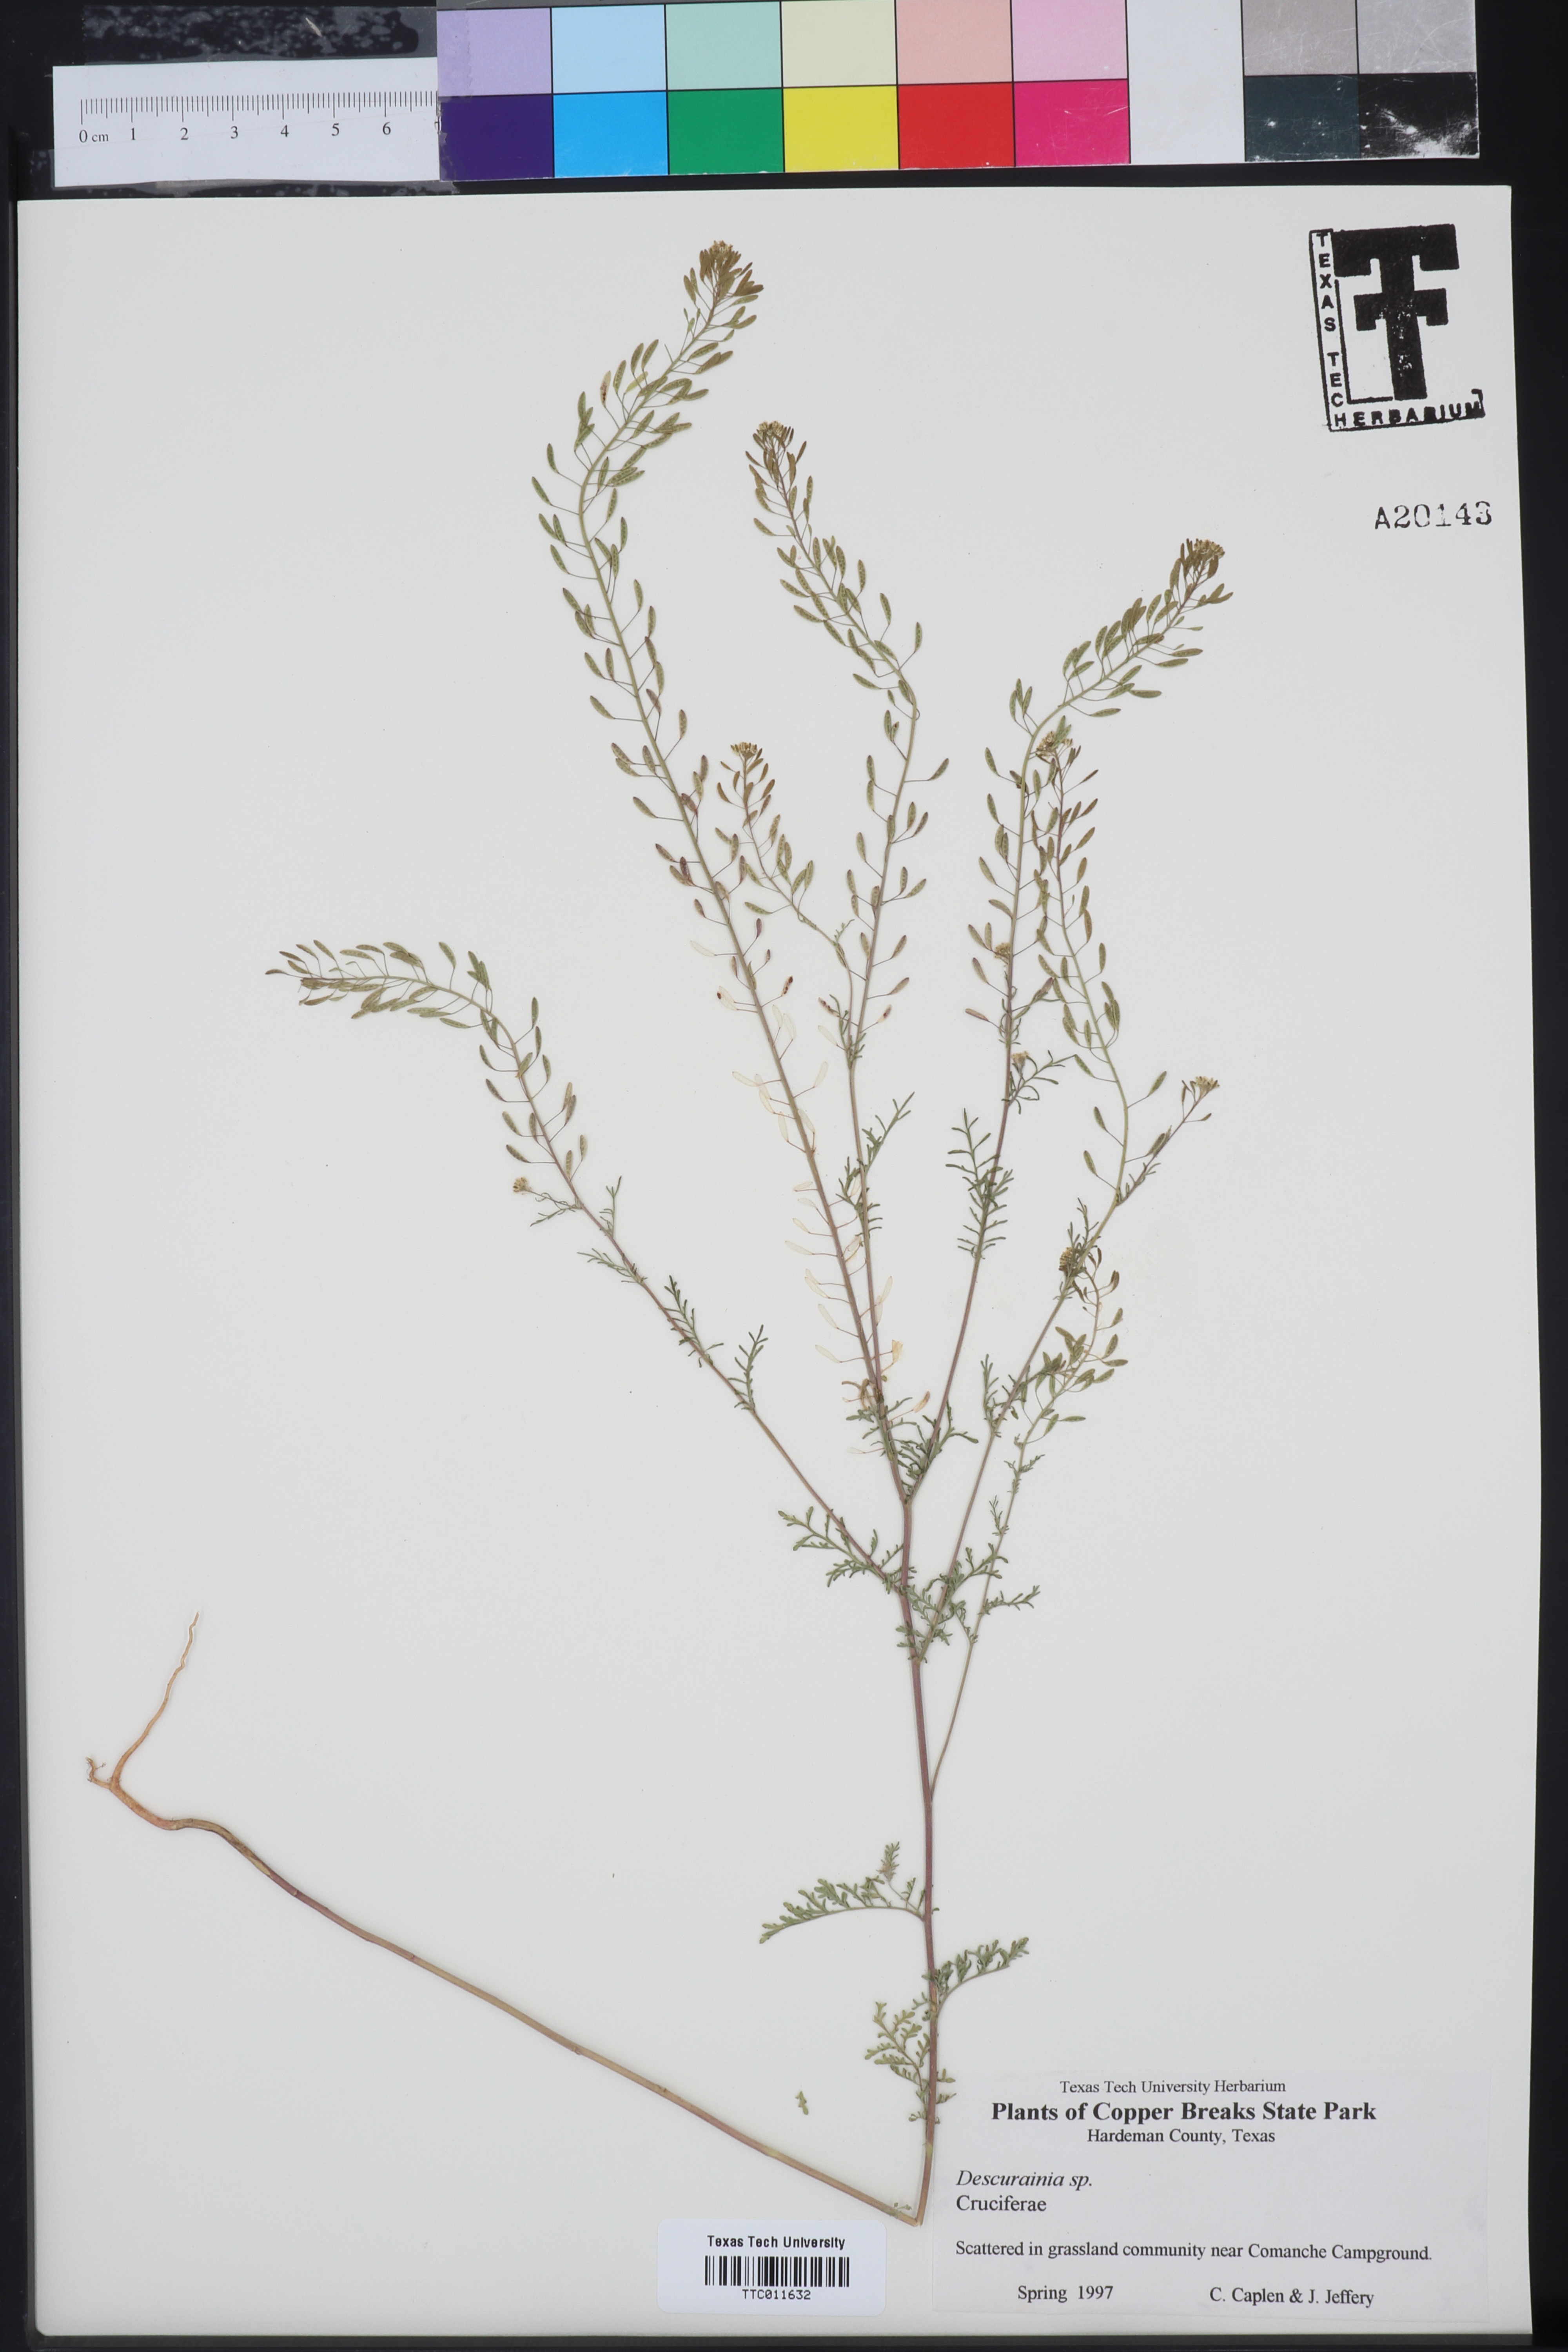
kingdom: Plantae
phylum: Tracheophyta
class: Magnoliopsida
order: Brassicales
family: Brassicaceae
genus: Descurainia
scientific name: Descurainia
